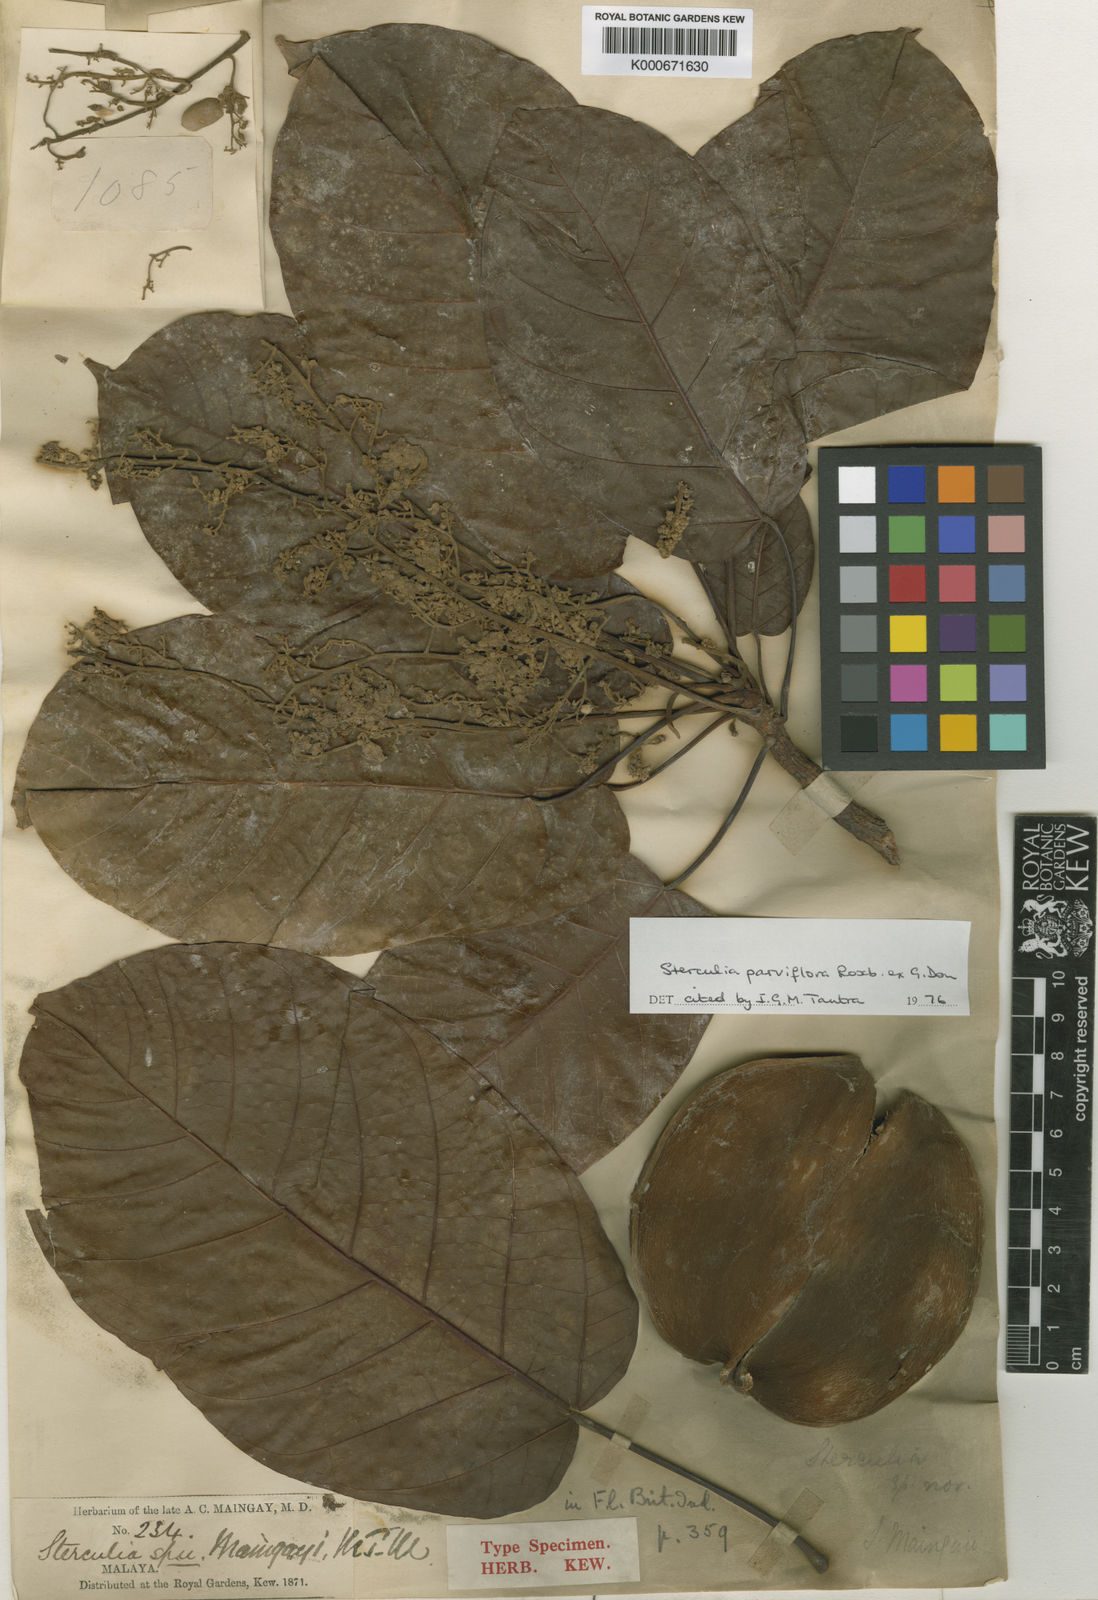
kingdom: Plantae
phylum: Tracheophyta
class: Magnoliopsida
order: Malvales
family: Malvaceae
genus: Sterculia
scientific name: Sterculia
